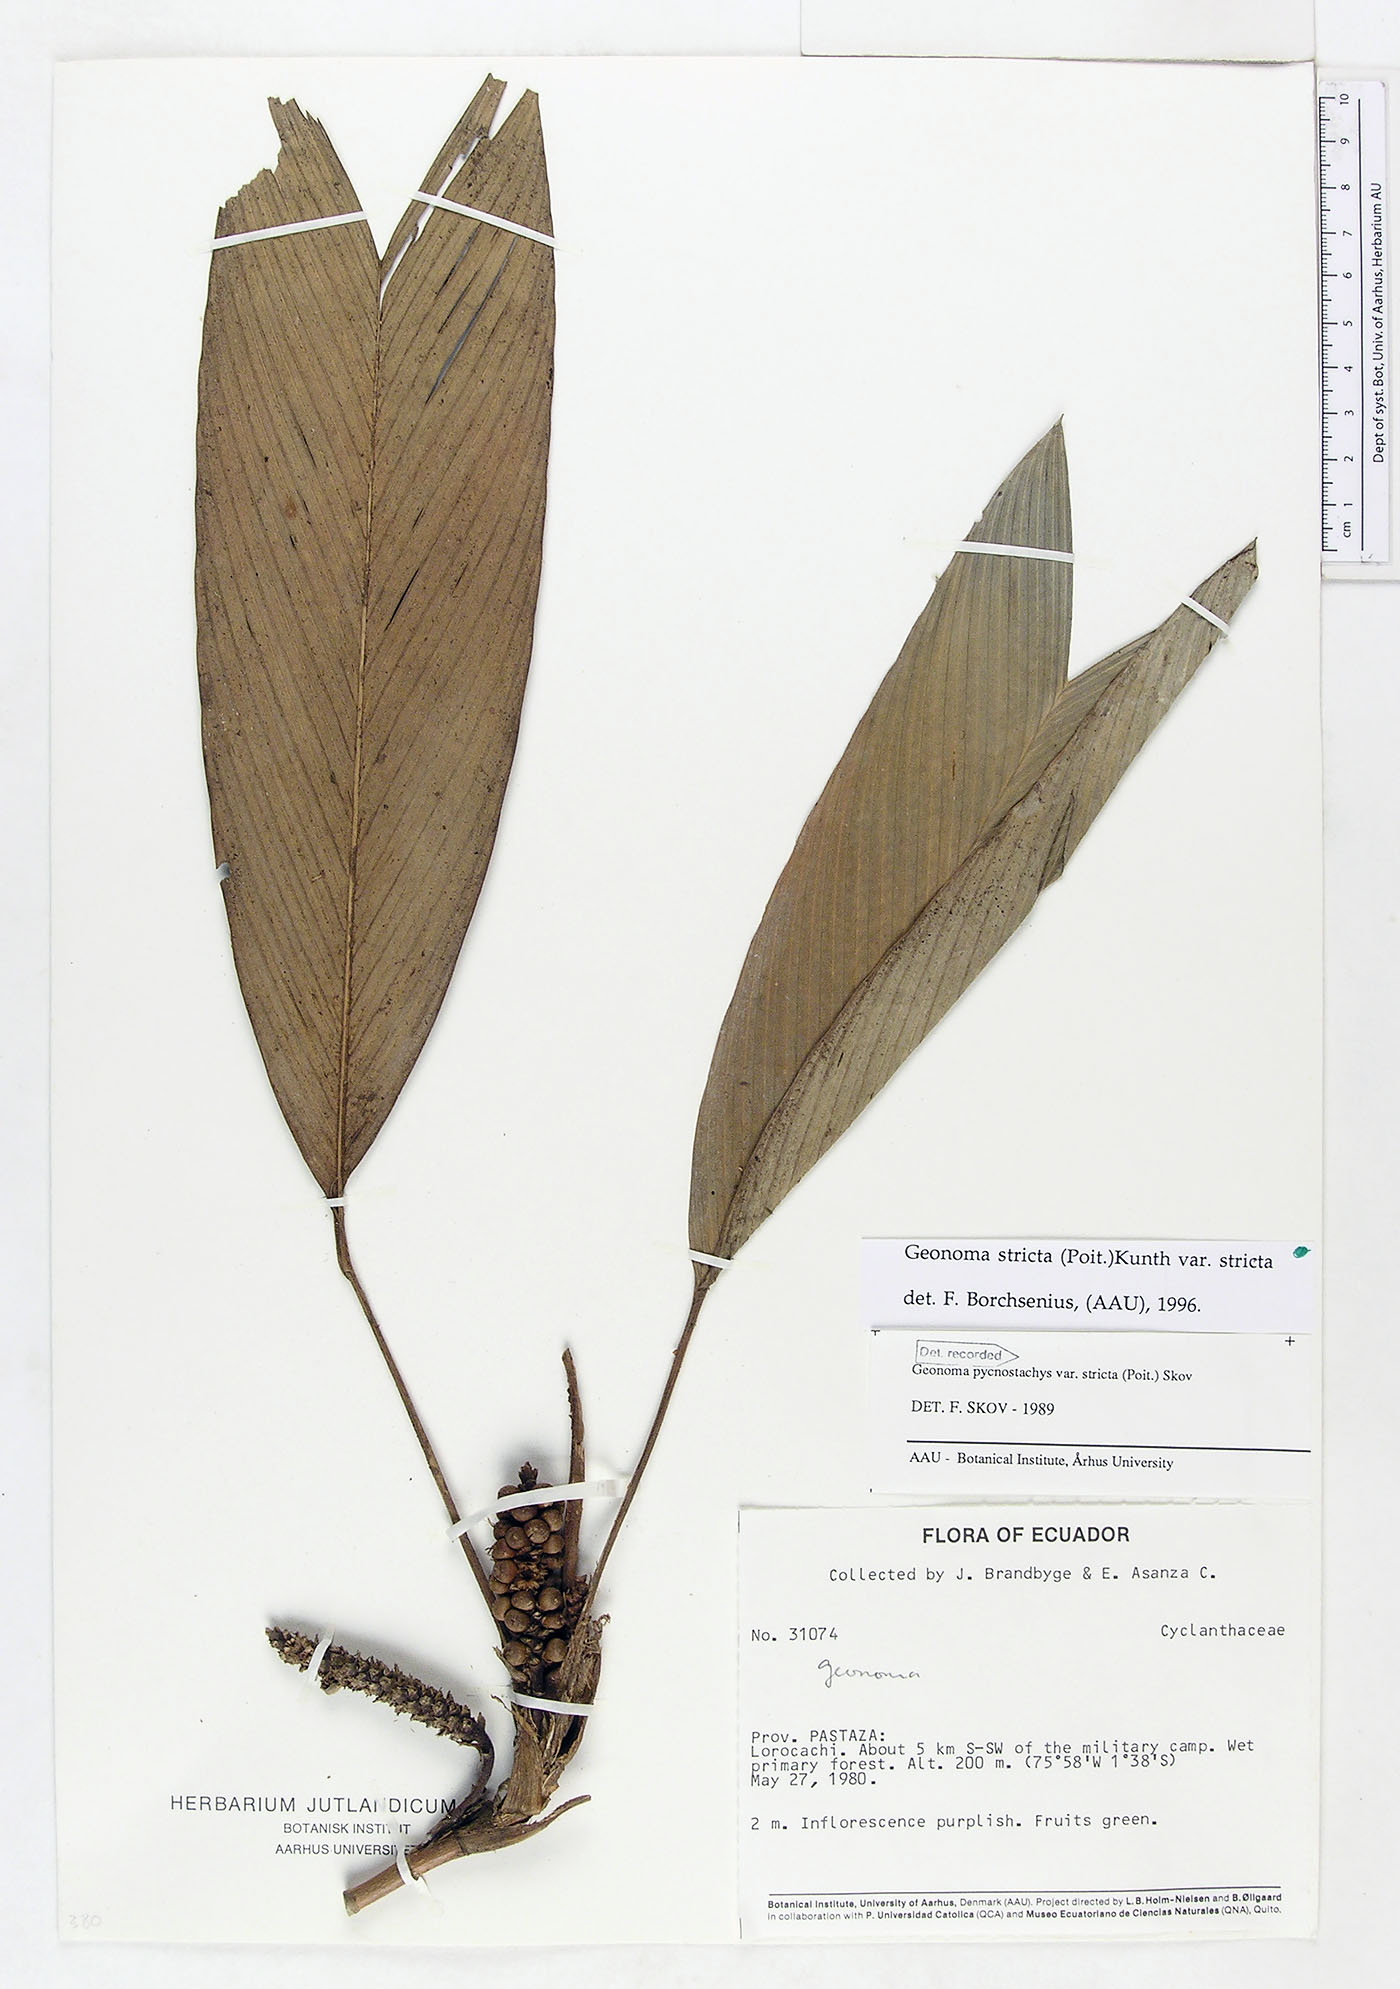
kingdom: Plantae
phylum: Tracheophyta
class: Liliopsida
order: Arecales
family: Arecaceae
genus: Geonoma
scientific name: Geonoma stricta
